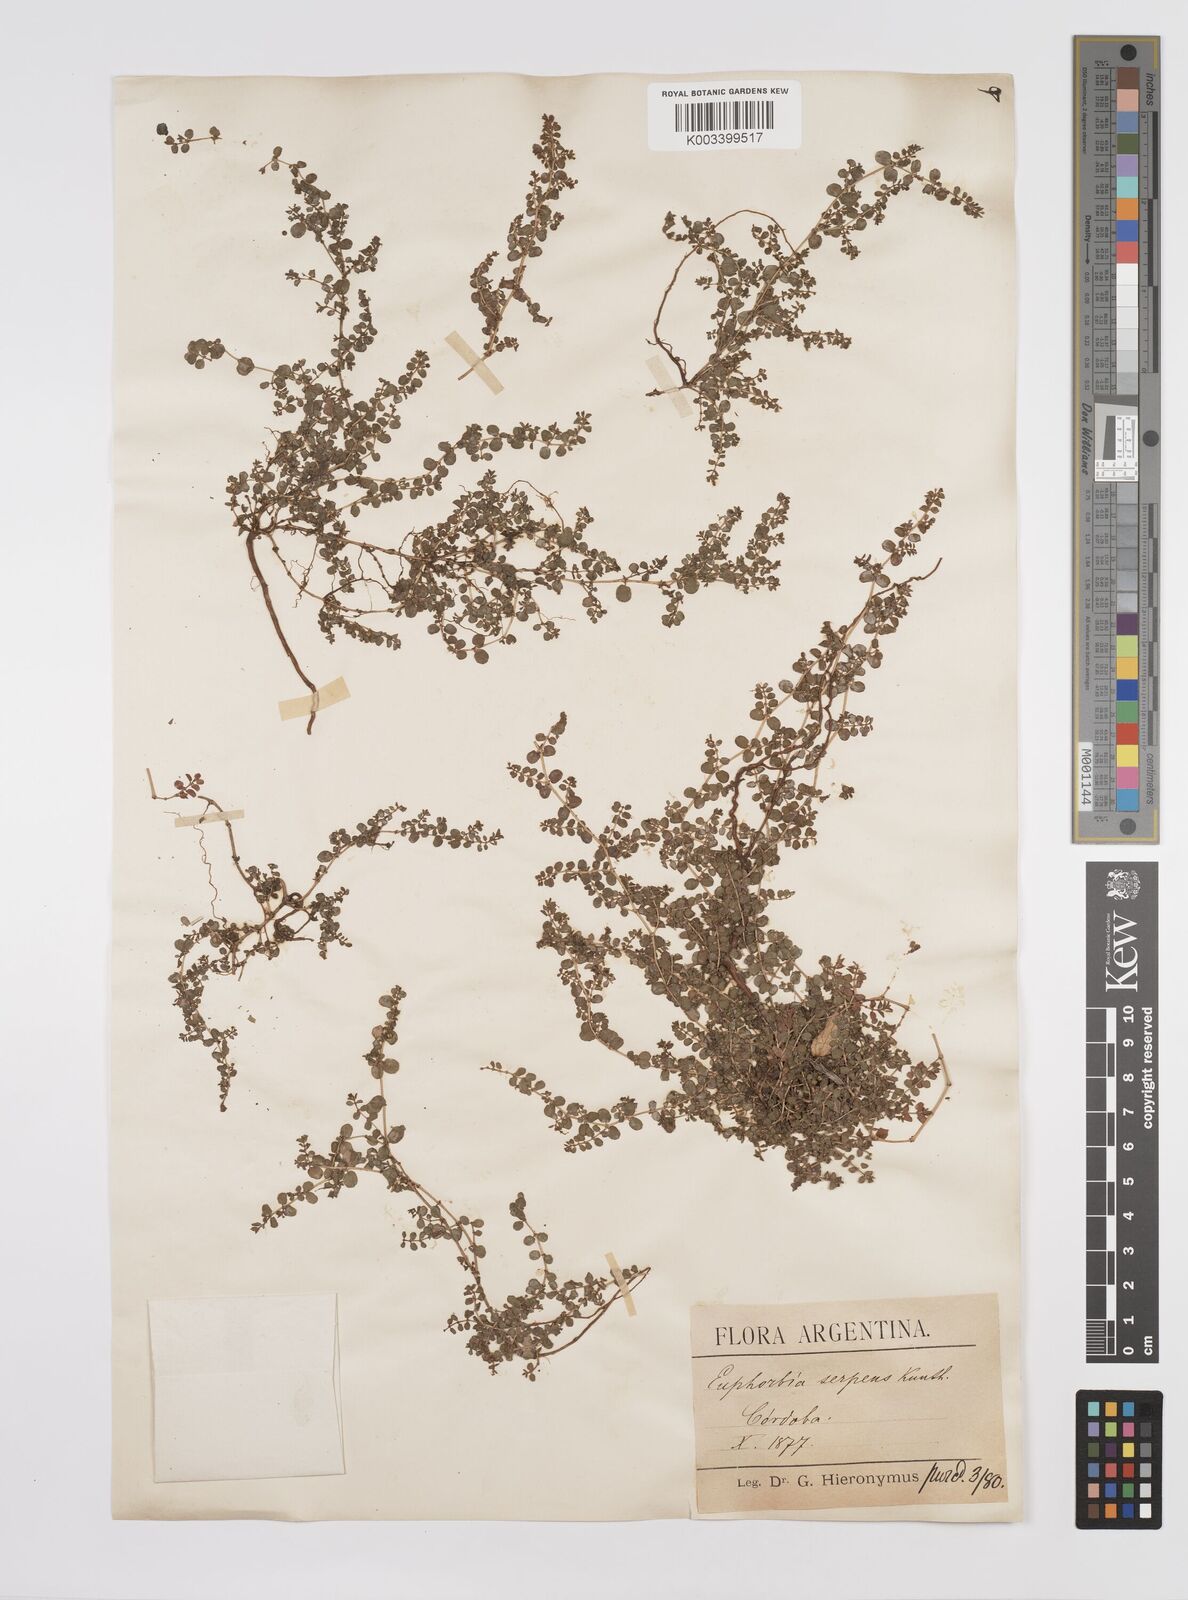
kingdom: Plantae
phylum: Tracheophyta
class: Magnoliopsida
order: Malpighiales
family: Euphorbiaceae
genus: Euphorbia
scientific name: Euphorbia
